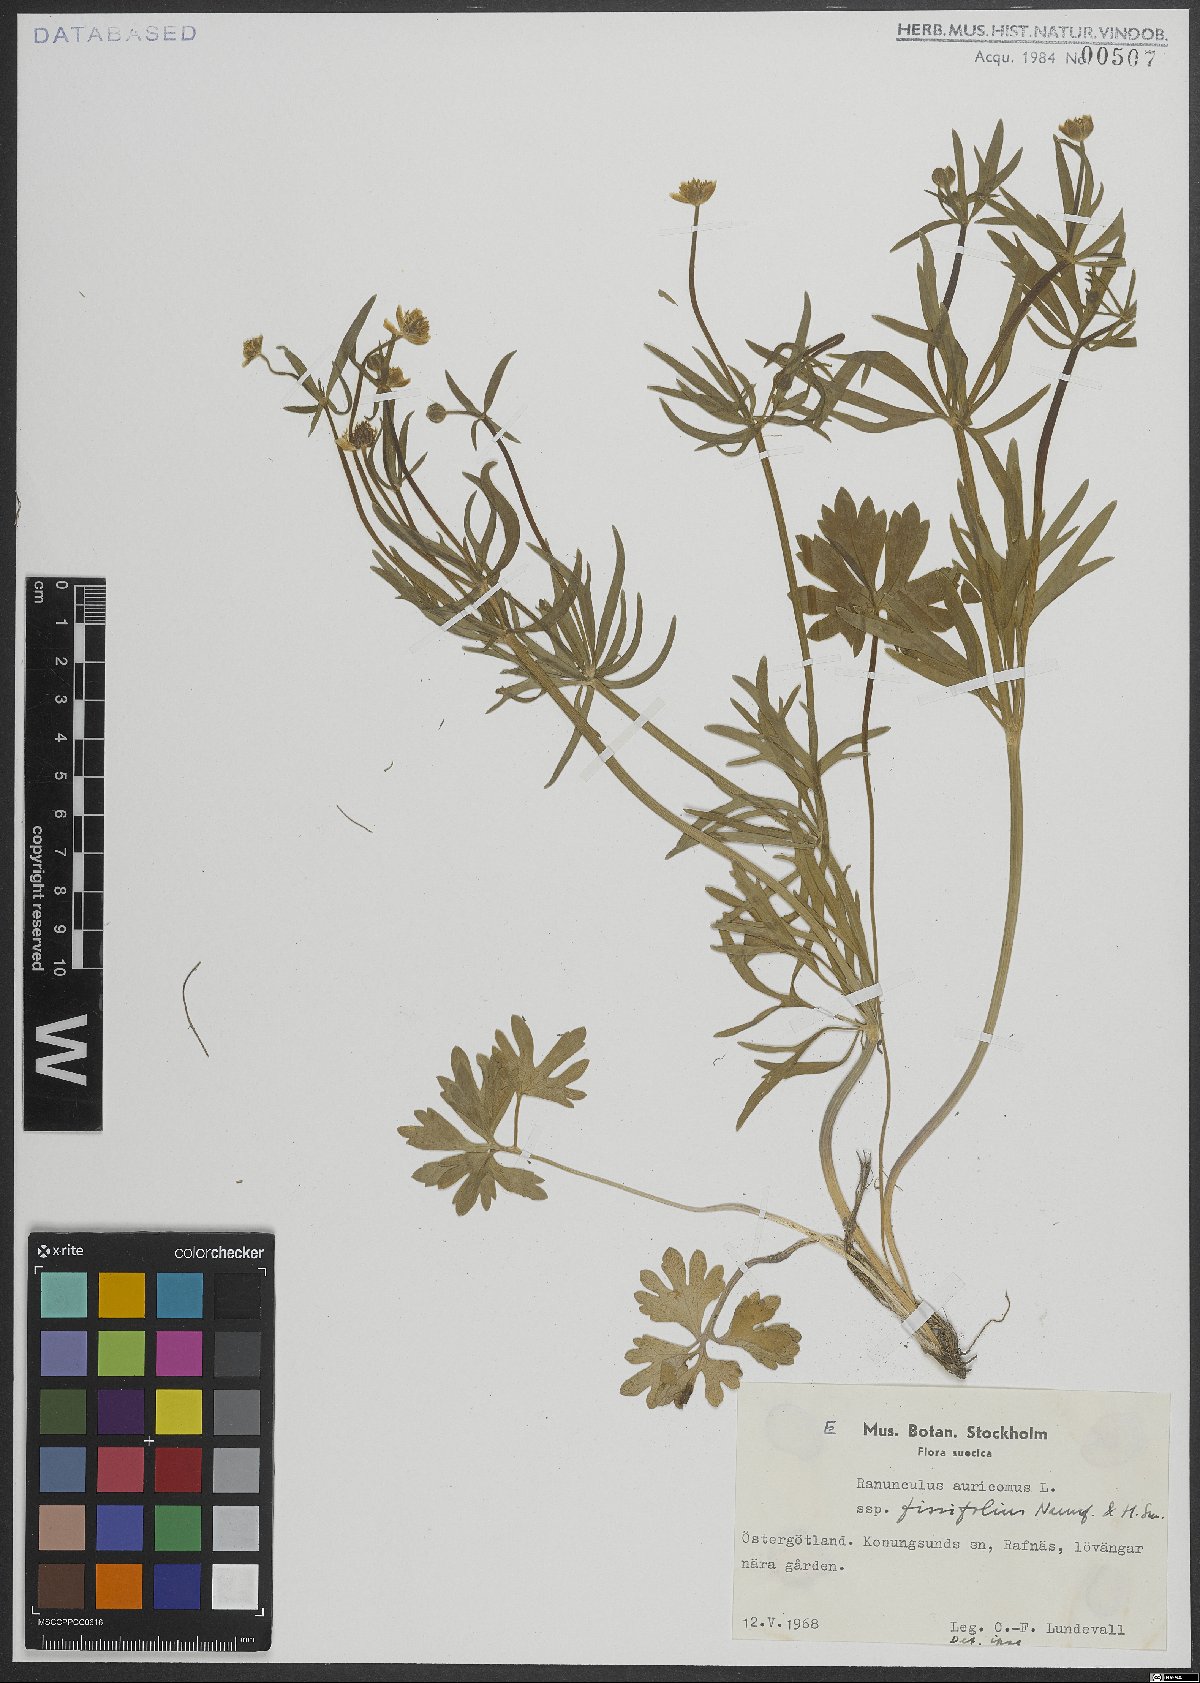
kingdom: Plantae
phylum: Tracheophyta
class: Magnoliopsida
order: Ranunculales
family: Ranunculaceae
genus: Ranunculus
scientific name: Ranunculus auricomus
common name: Goldilocks buttercup
